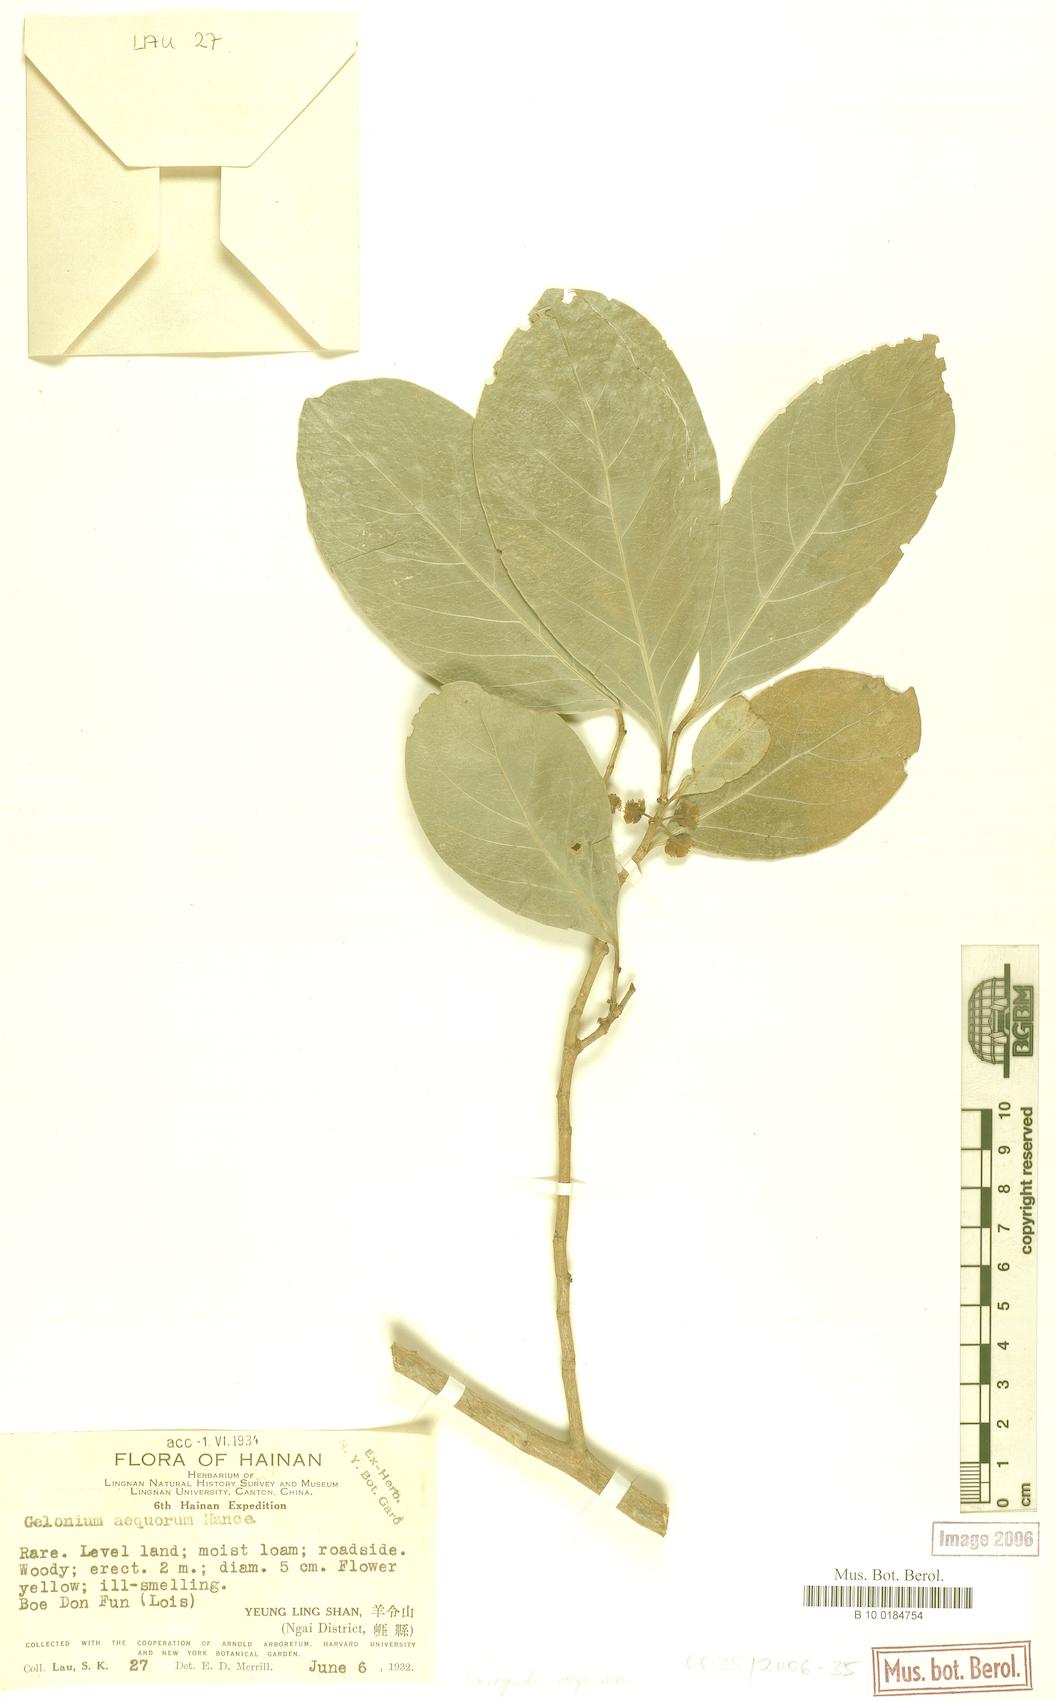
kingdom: Plantae
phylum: Tracheophyta
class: Magnoliopsida
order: Malpighiales
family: Euphorbiaceae
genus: Suregada
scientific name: Suregada multiflora
